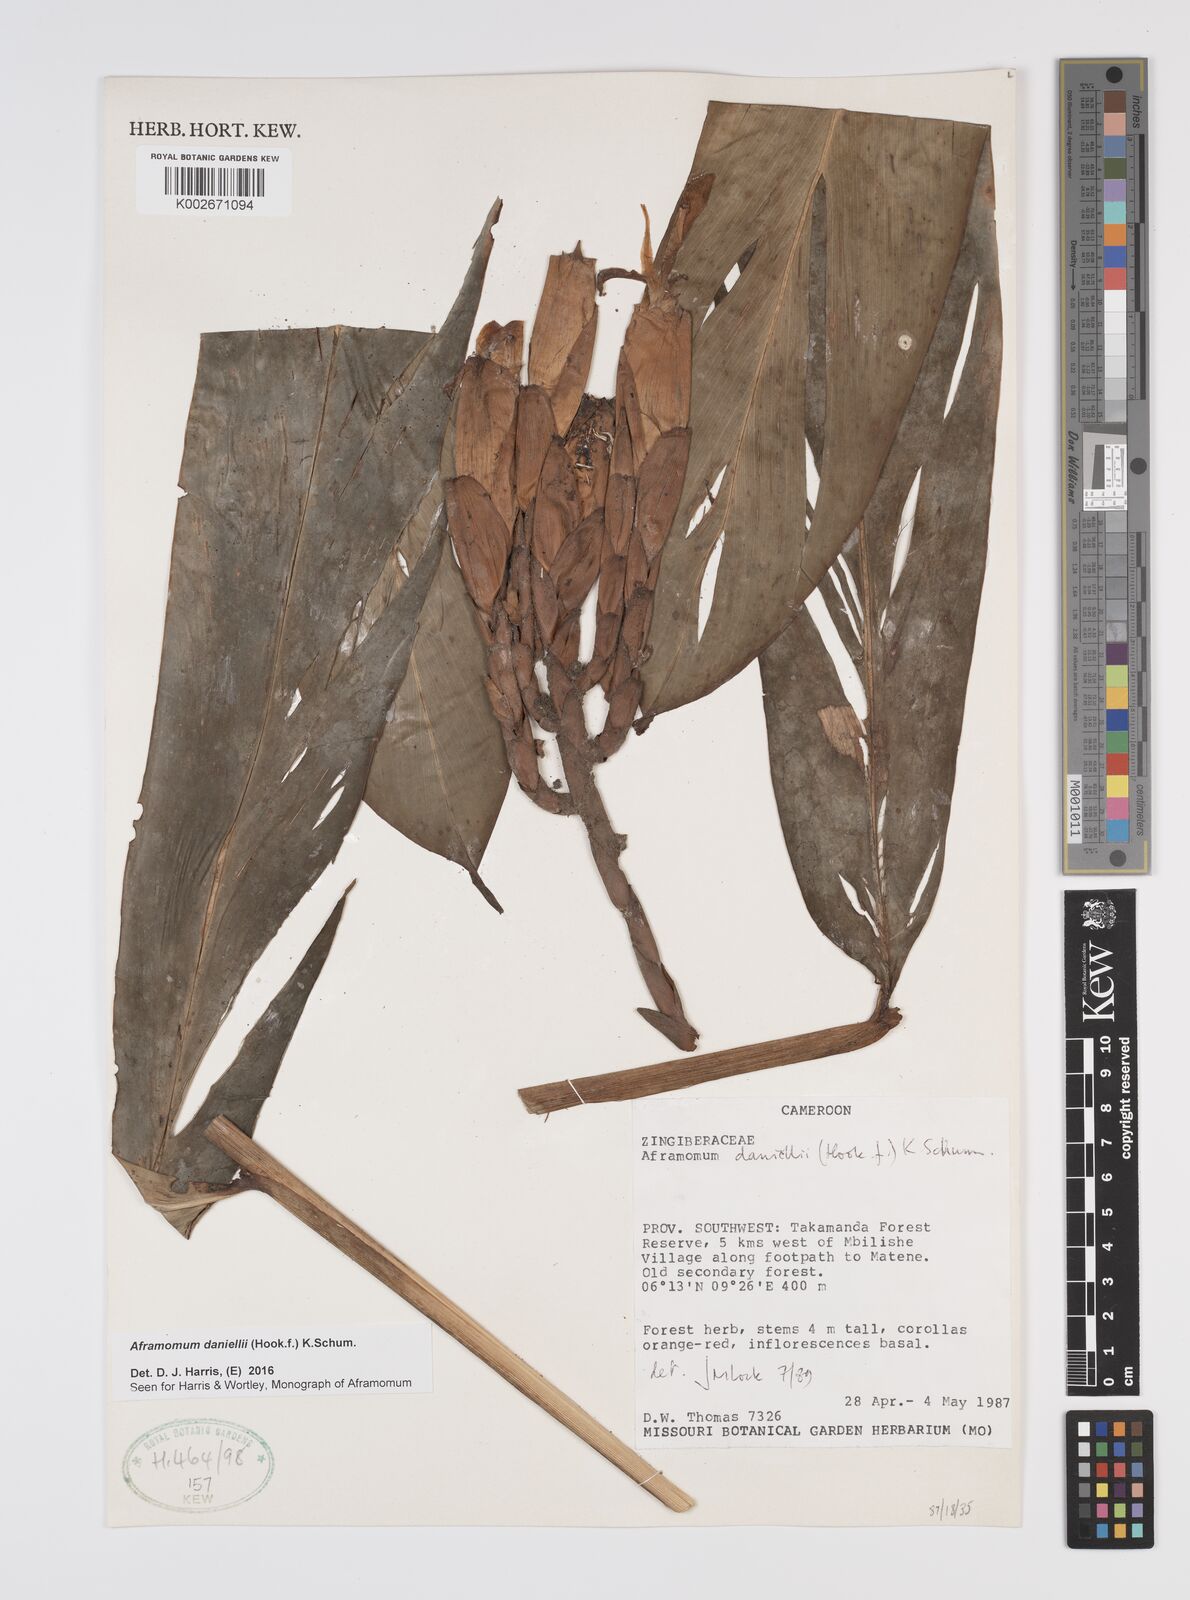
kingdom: Plantae
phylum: Tracheophyta
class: Liliopsida
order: Zingiberales
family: Zingiberaceae
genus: Aframomum
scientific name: Aframomum daniellii
